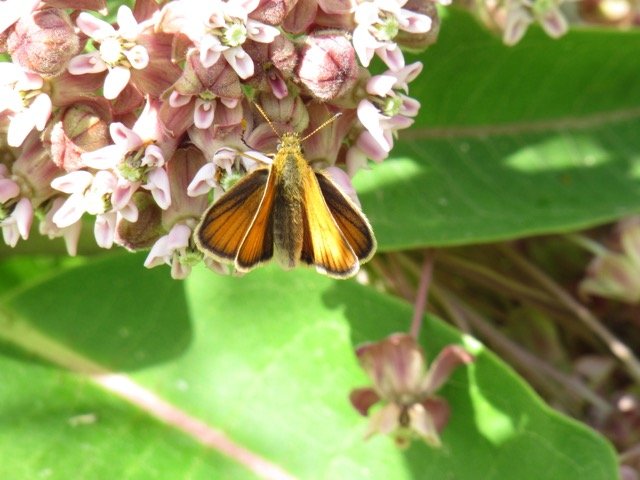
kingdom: Animalia
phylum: Arthropoda
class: Insecta
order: Lepidoptera
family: Hesperiidae
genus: Thymelicus
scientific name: Thymelicus lineola
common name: European Skipper
